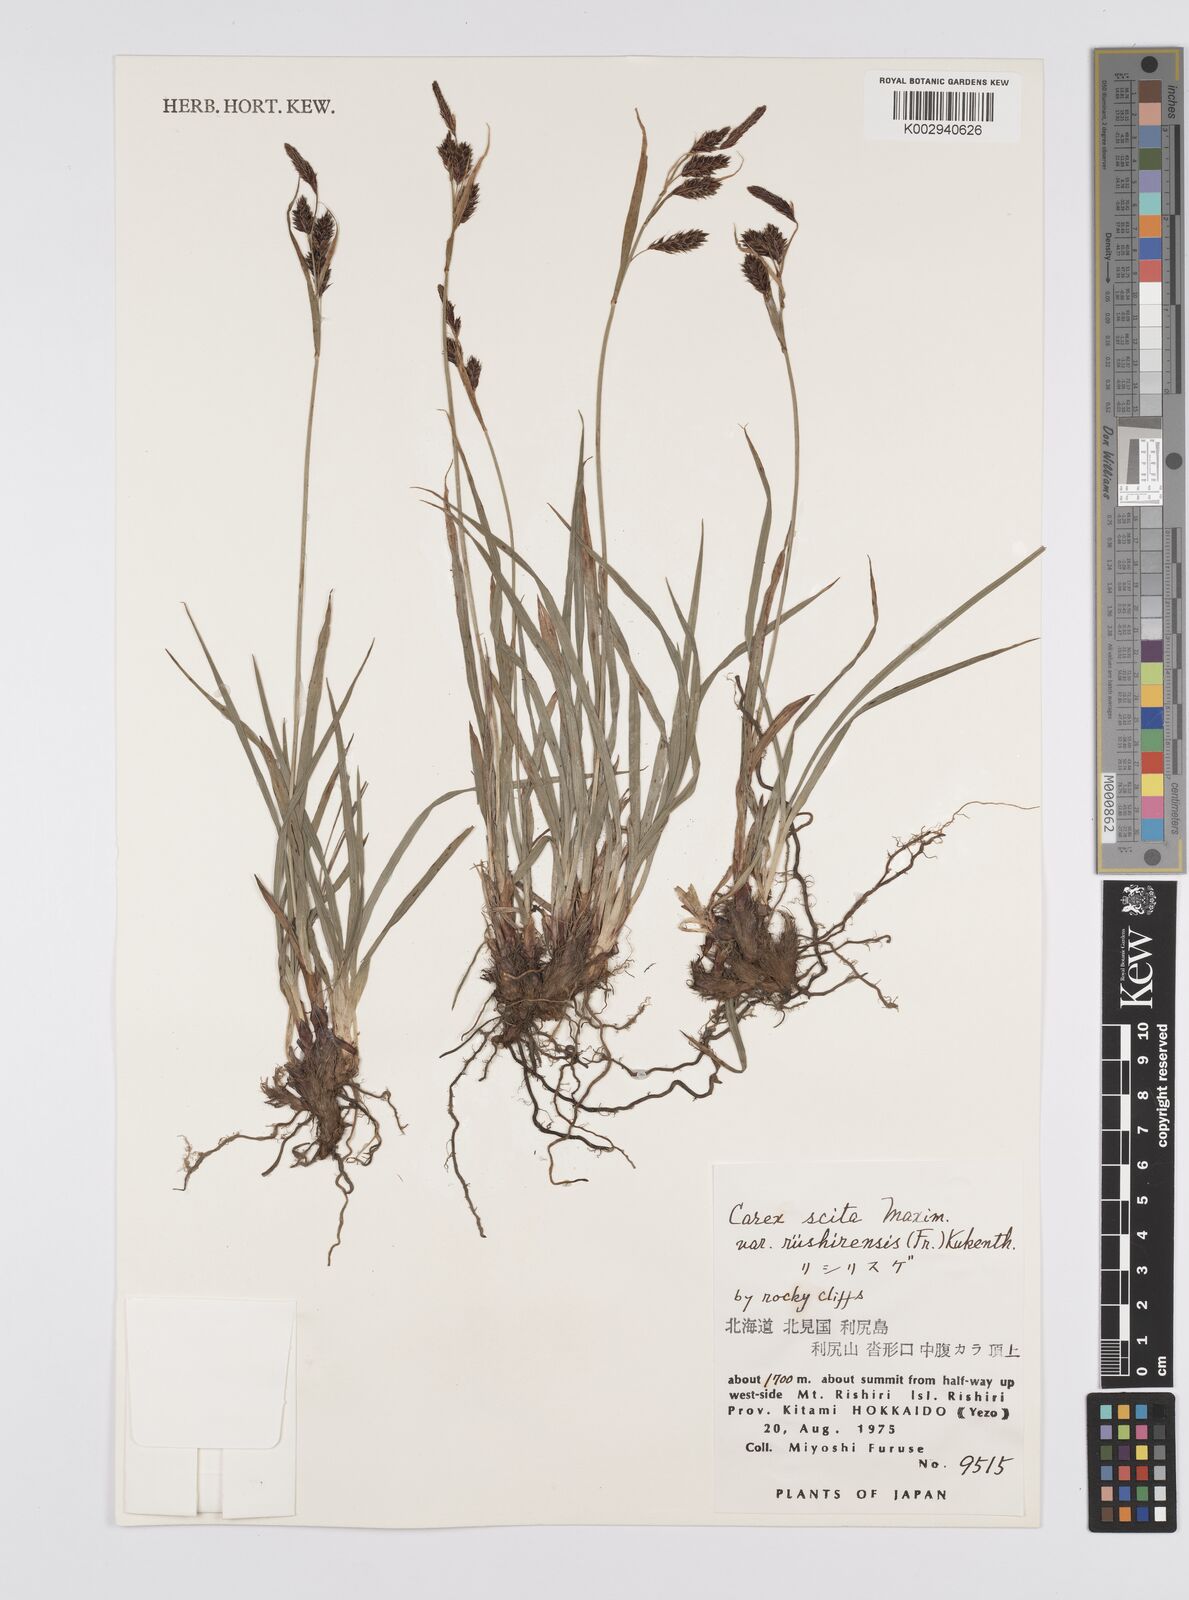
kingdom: Plantae
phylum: Tracheophyta
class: Liliopsida
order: Poales
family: Cyperaceae
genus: Carex
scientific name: Carex scita
